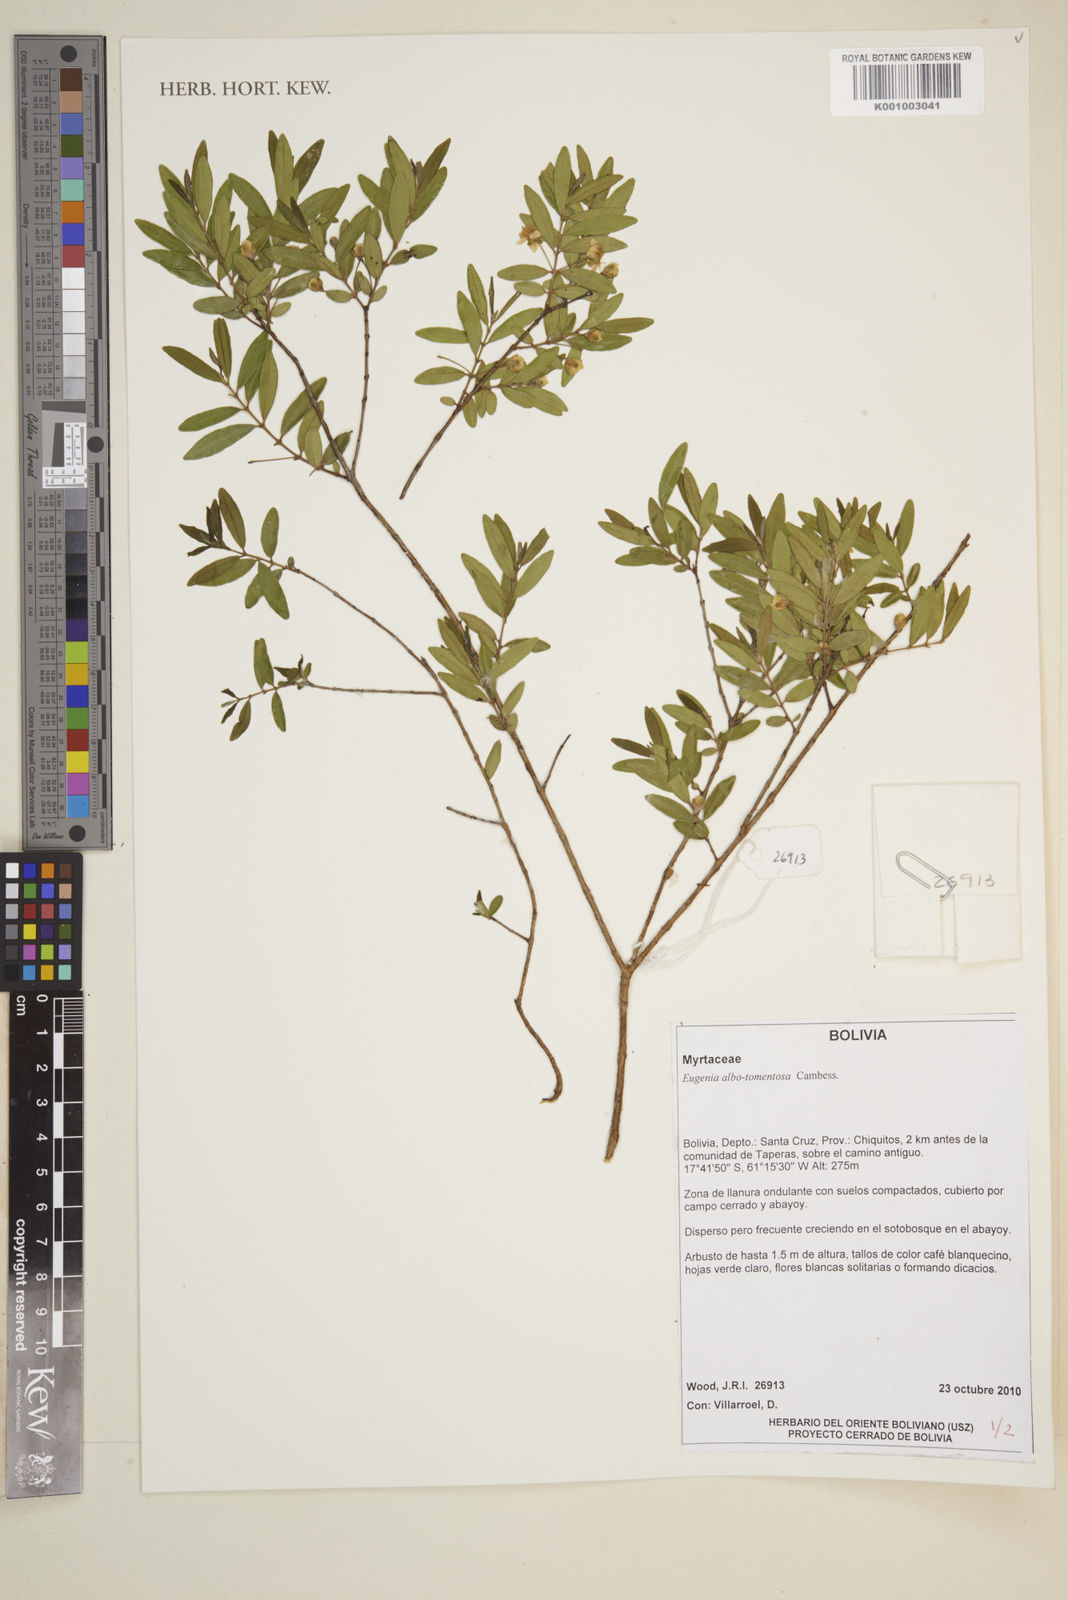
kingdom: Plantae
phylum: Tracheophyta
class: Magnoliopsida
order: Myrtales
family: Myrtaceae
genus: Eugenia
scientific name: Eugenia pyriformis
